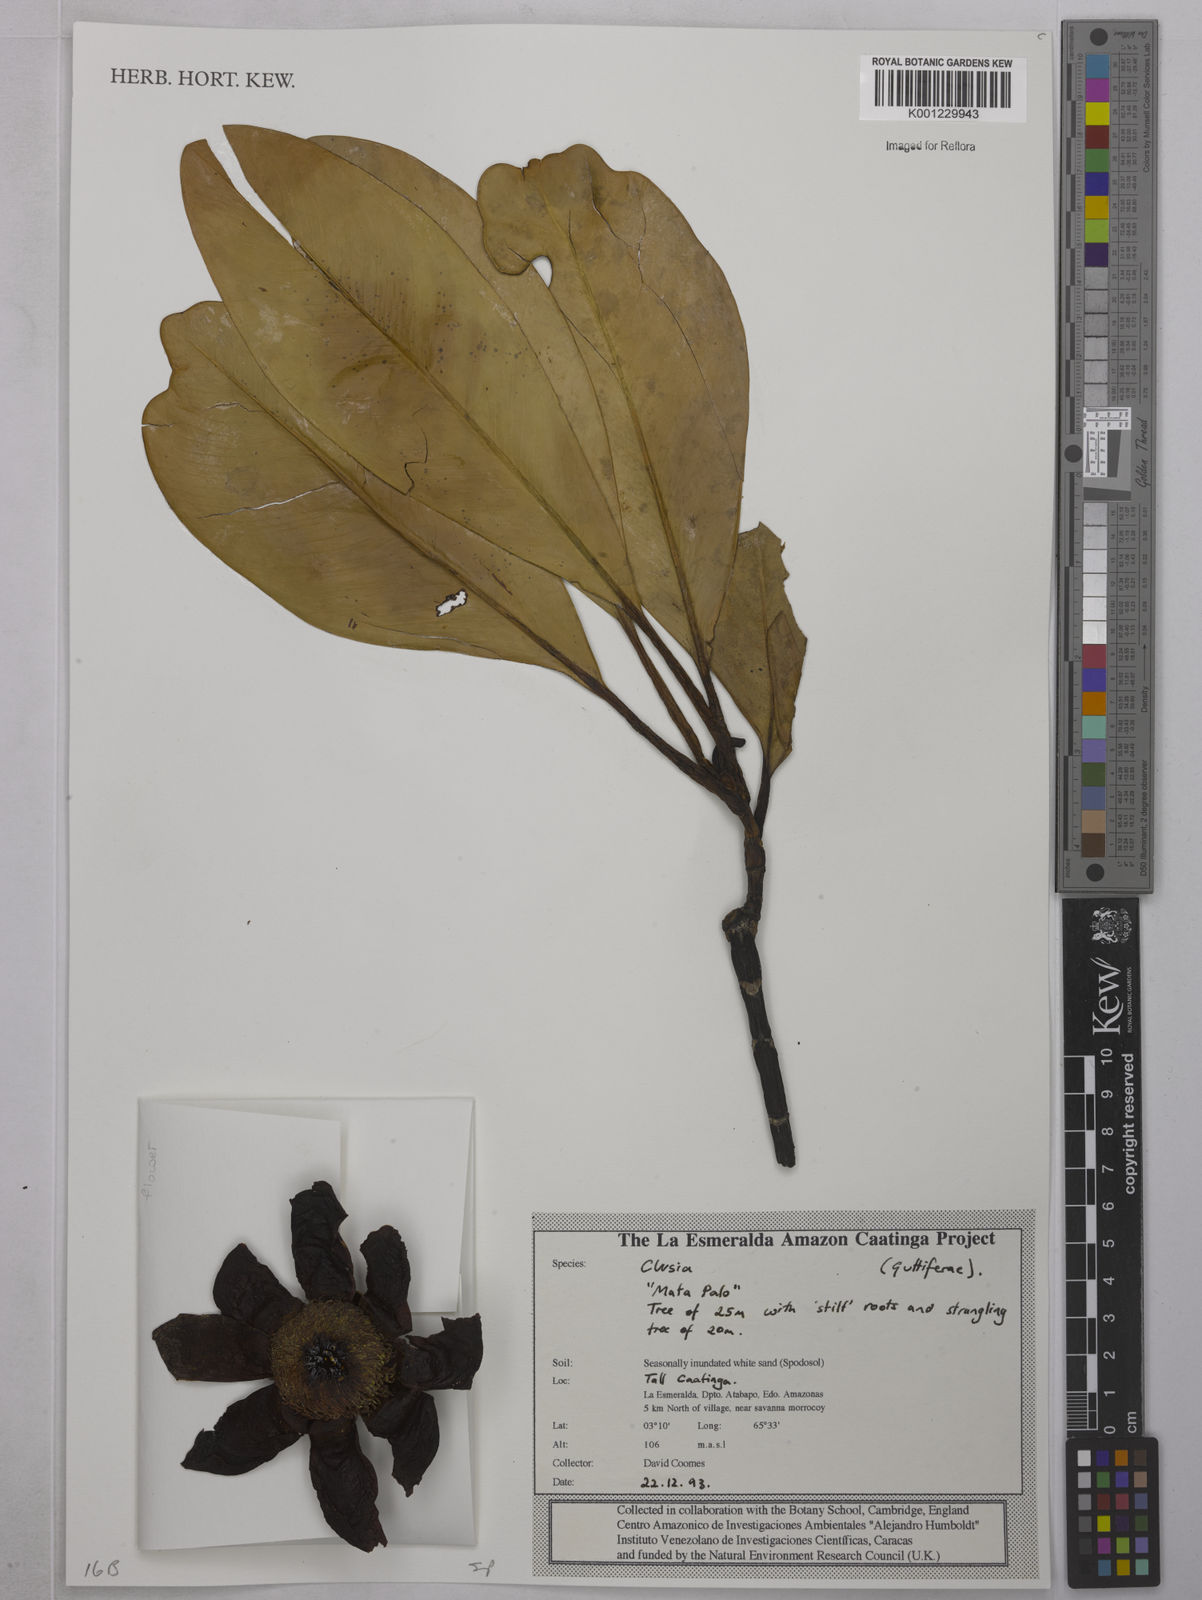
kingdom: Plantae
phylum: Tracheophyta
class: Magnoliopsida
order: Malpighiales
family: Clusiaceae
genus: Clusia
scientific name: Clusia
